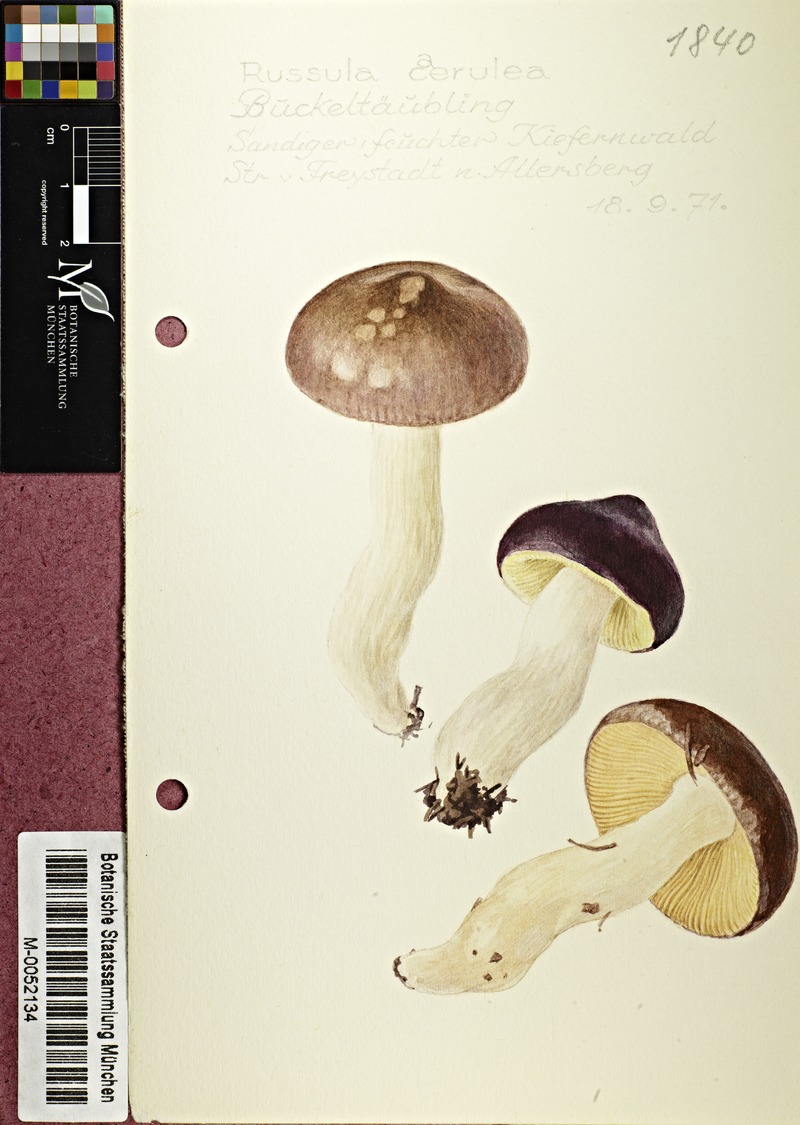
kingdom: Fungi
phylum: Basidiomycota
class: Agaricomycetes
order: Russulales
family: Russulaceae
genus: Russula
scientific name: Russula caerulea
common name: Humpback brittlegill
